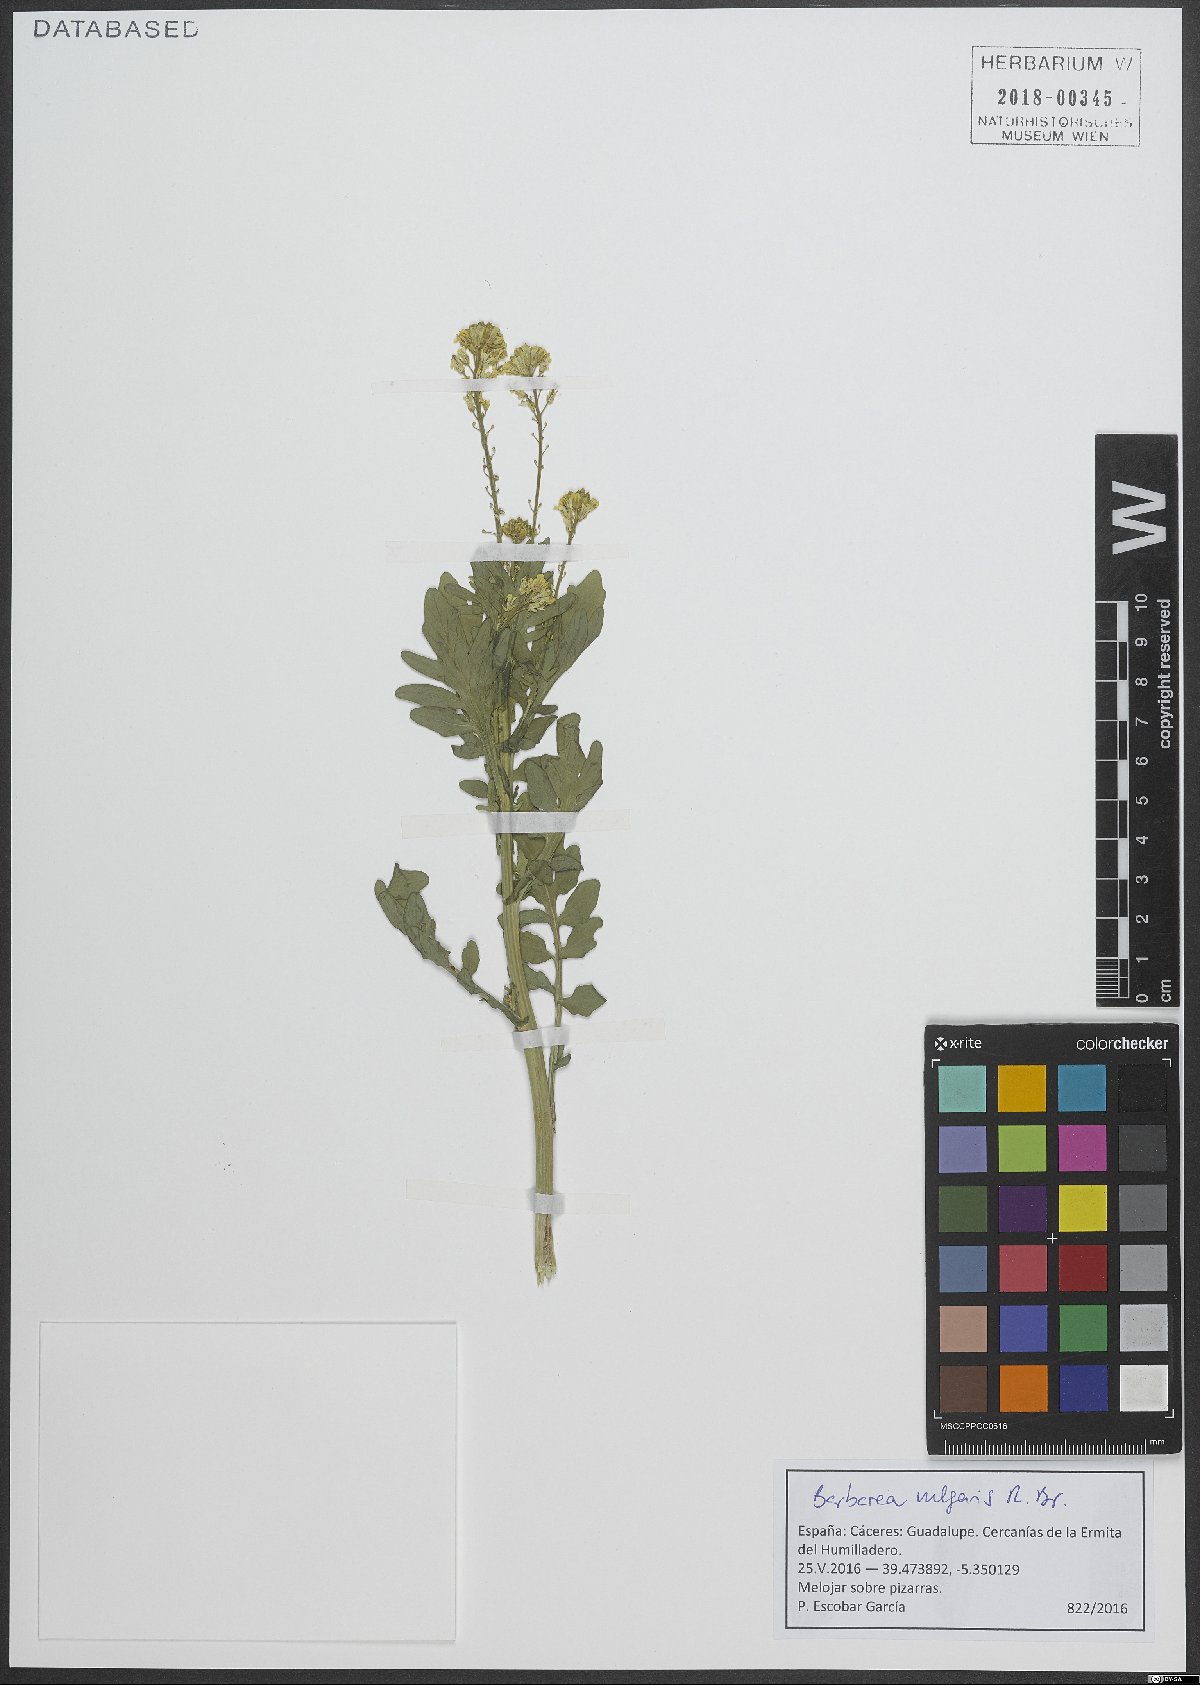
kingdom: Plantae
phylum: Tracheophyta
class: Magnoliopsida
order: Brassicales
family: Brassicaceae
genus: Barbarea
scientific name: Barbarea vulgaris
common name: Cressy-greens
